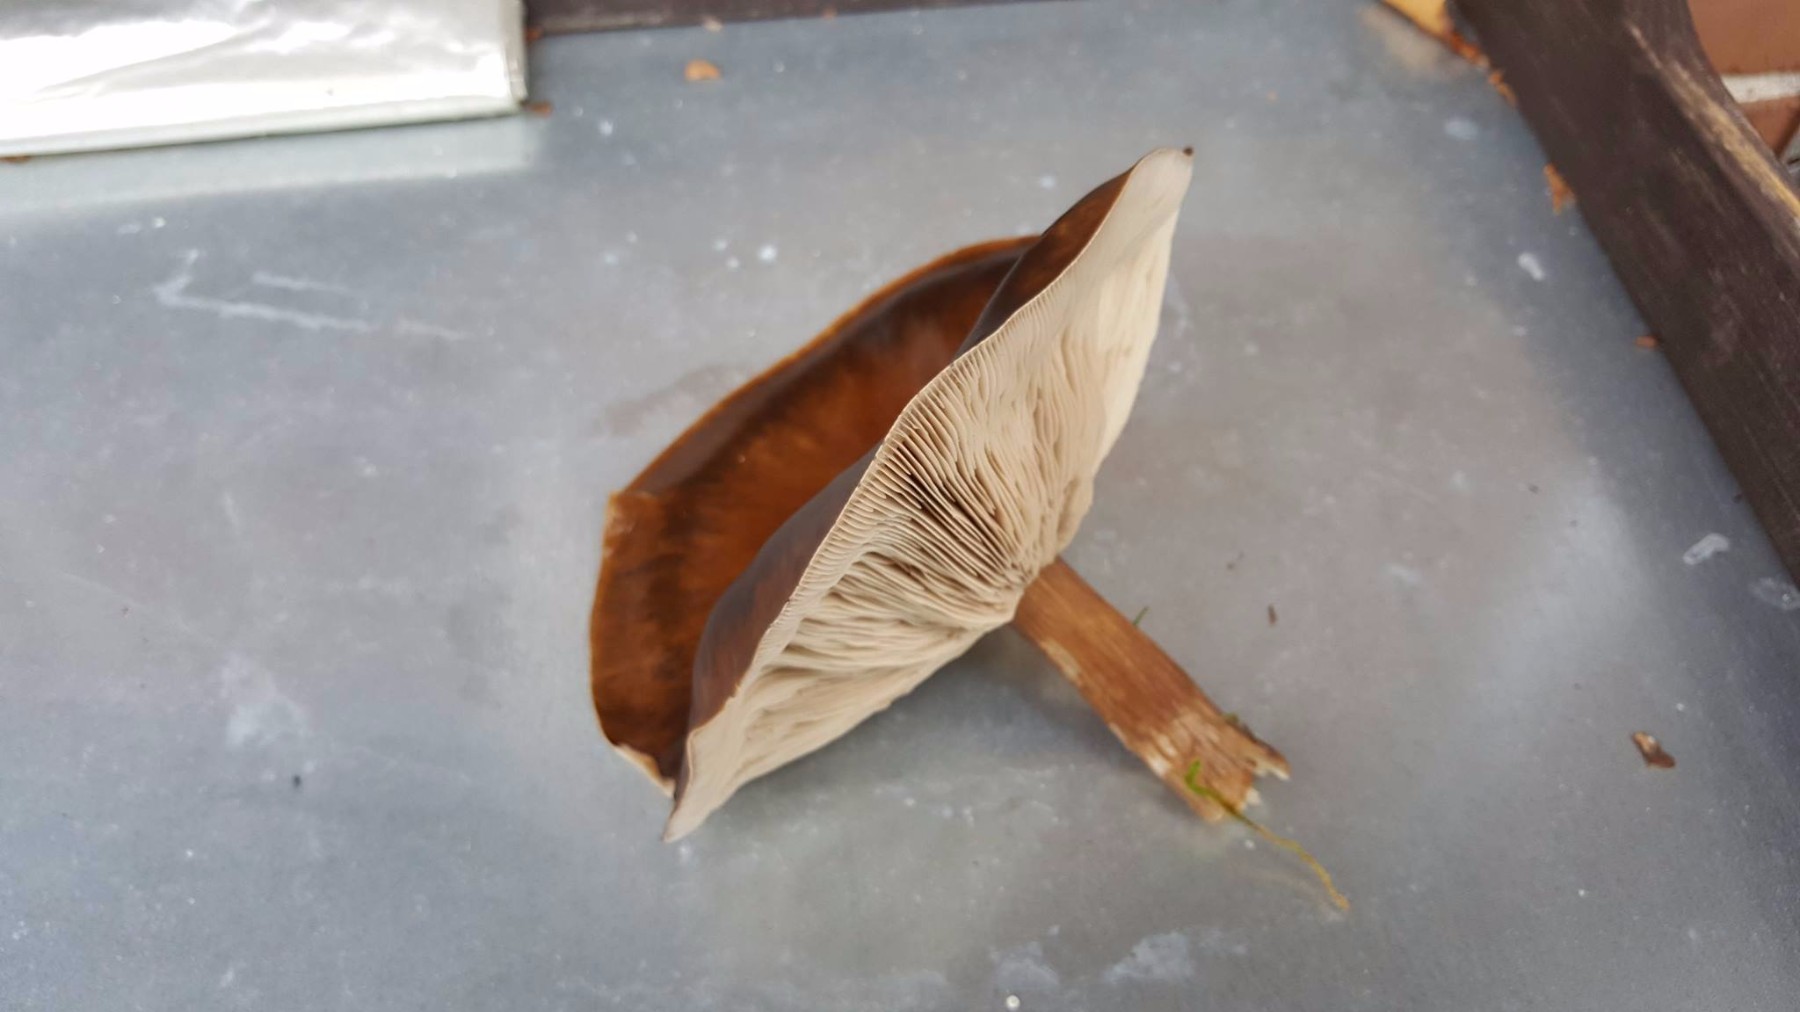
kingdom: Fungi
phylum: Basidiomycota
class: Agaricomycetes
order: Agaricales
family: Tricholomataceae
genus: Melanoleuca
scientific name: Melanoleuca
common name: munkehat
